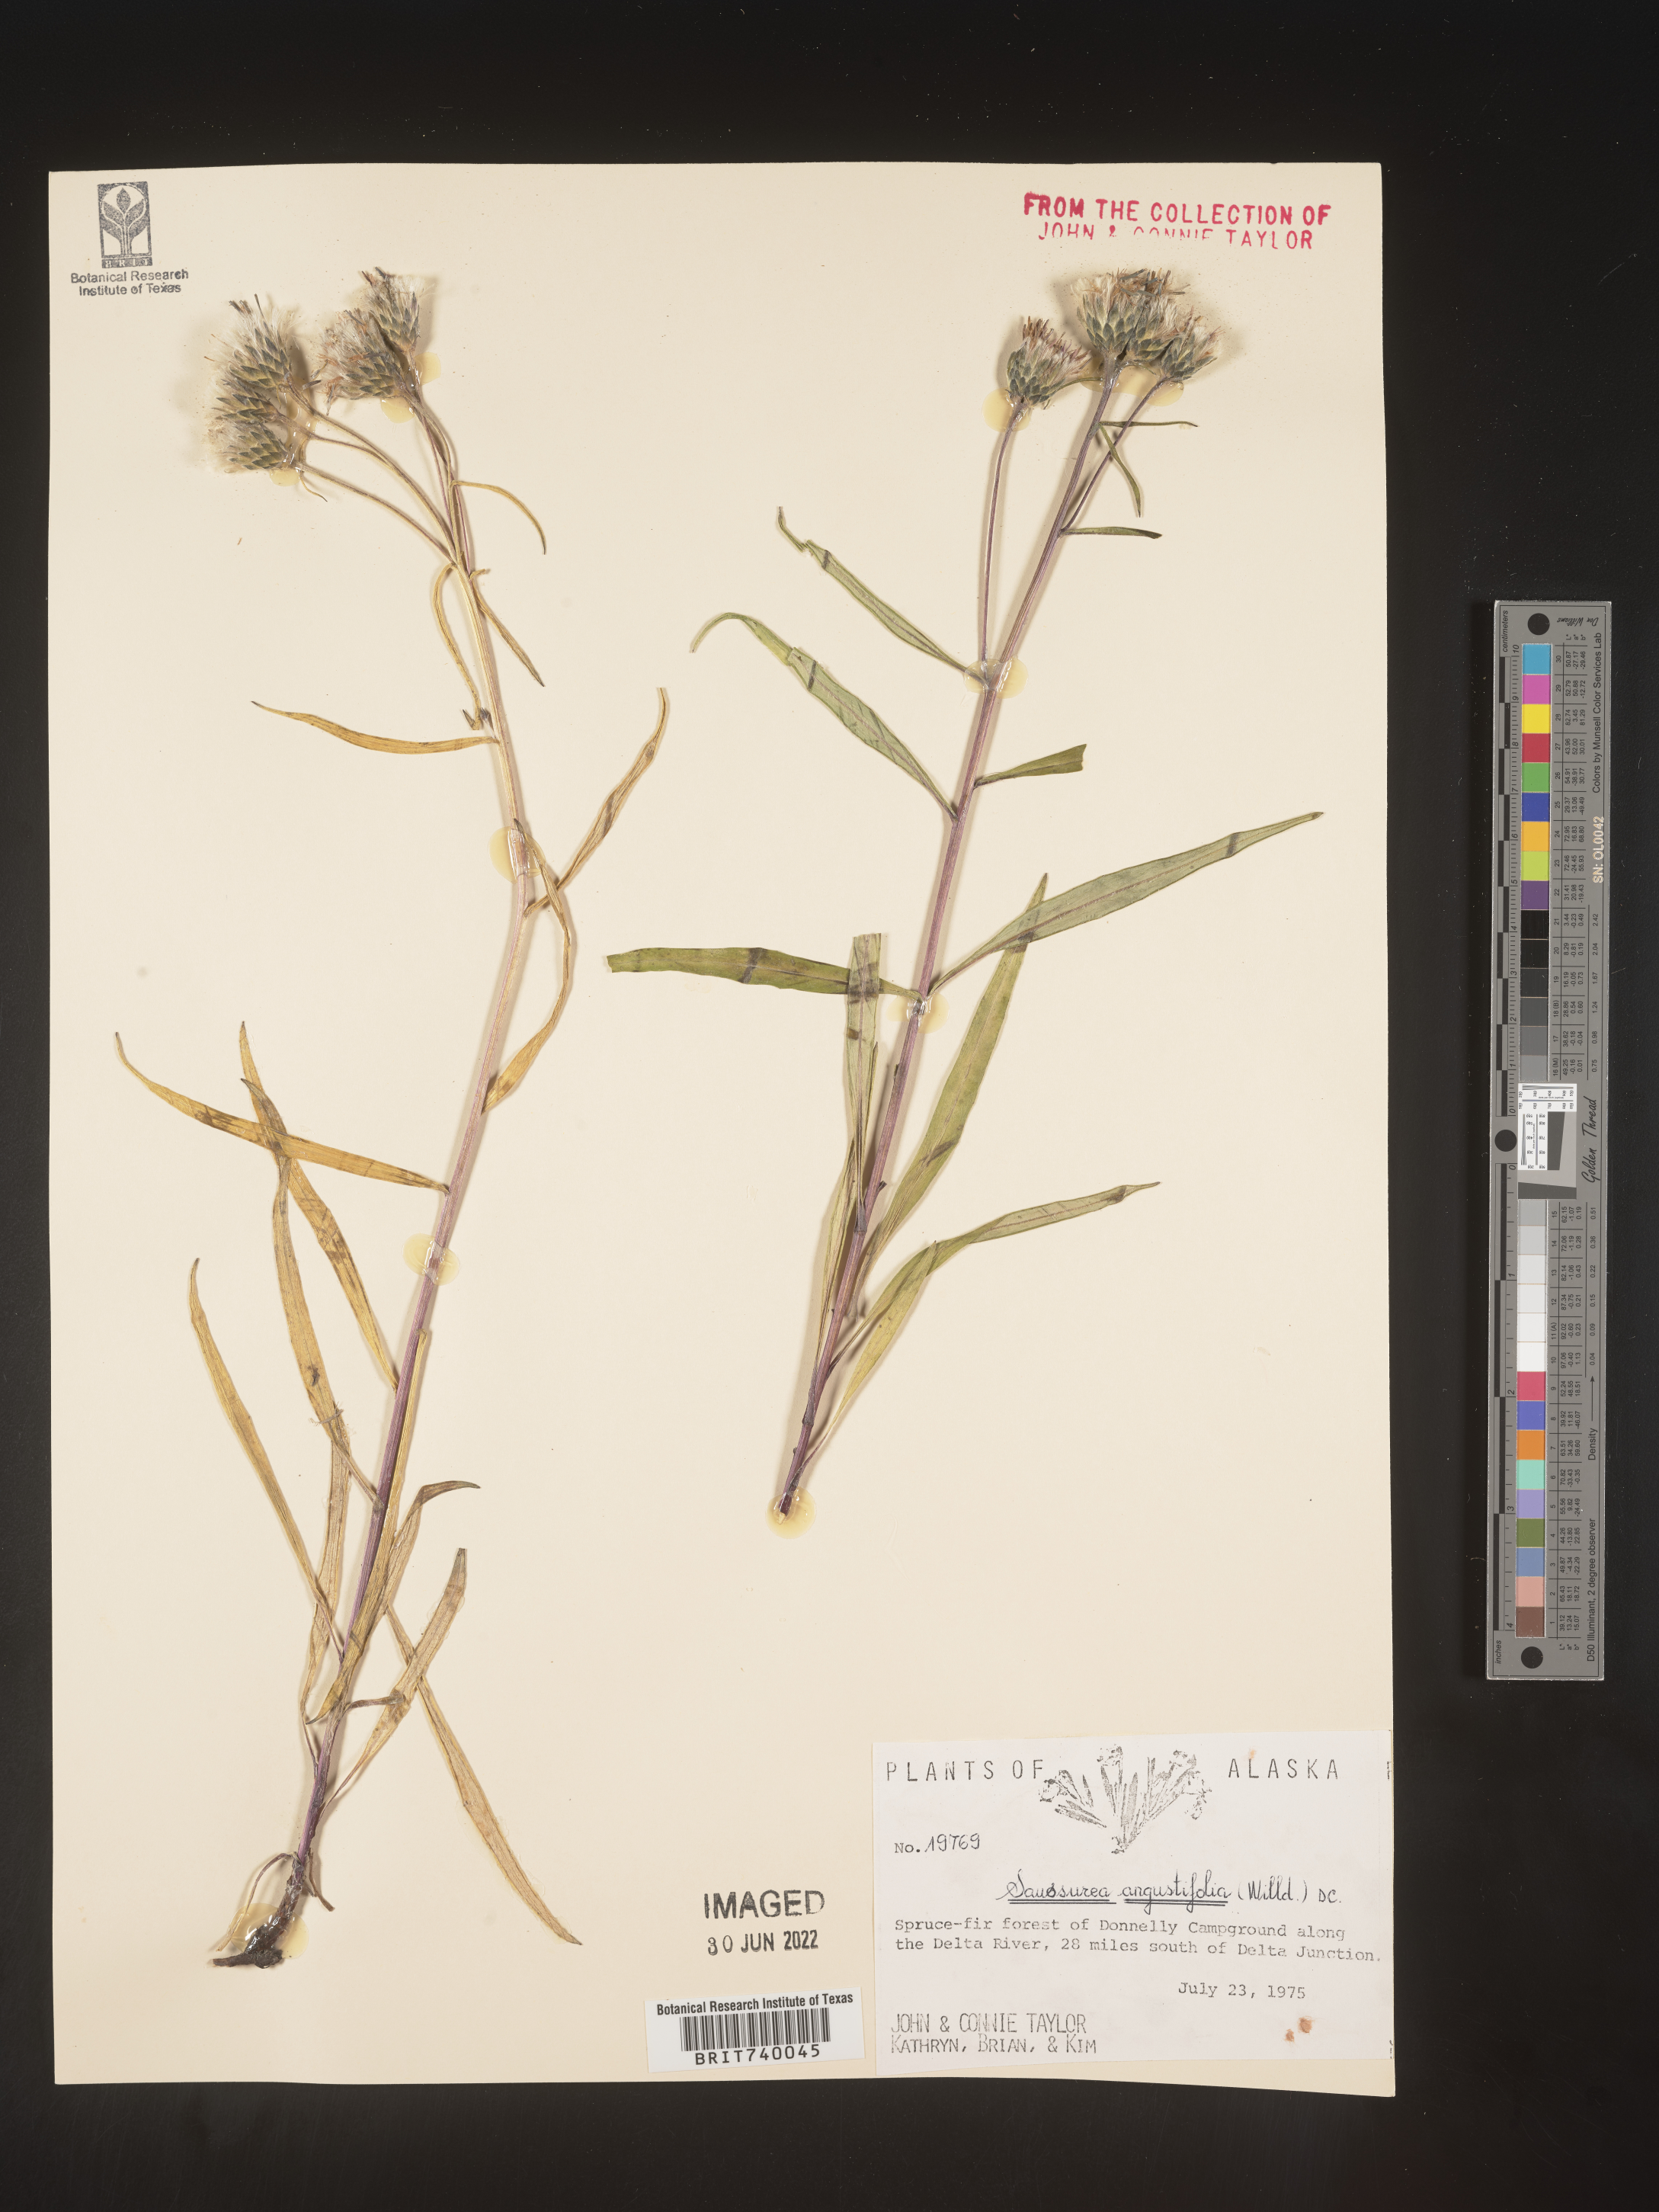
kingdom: Plantae
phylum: Tracheophyta
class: Magnoliopsida
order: Asterales
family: Asteraceae
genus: Saussurea
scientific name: Saussurea
